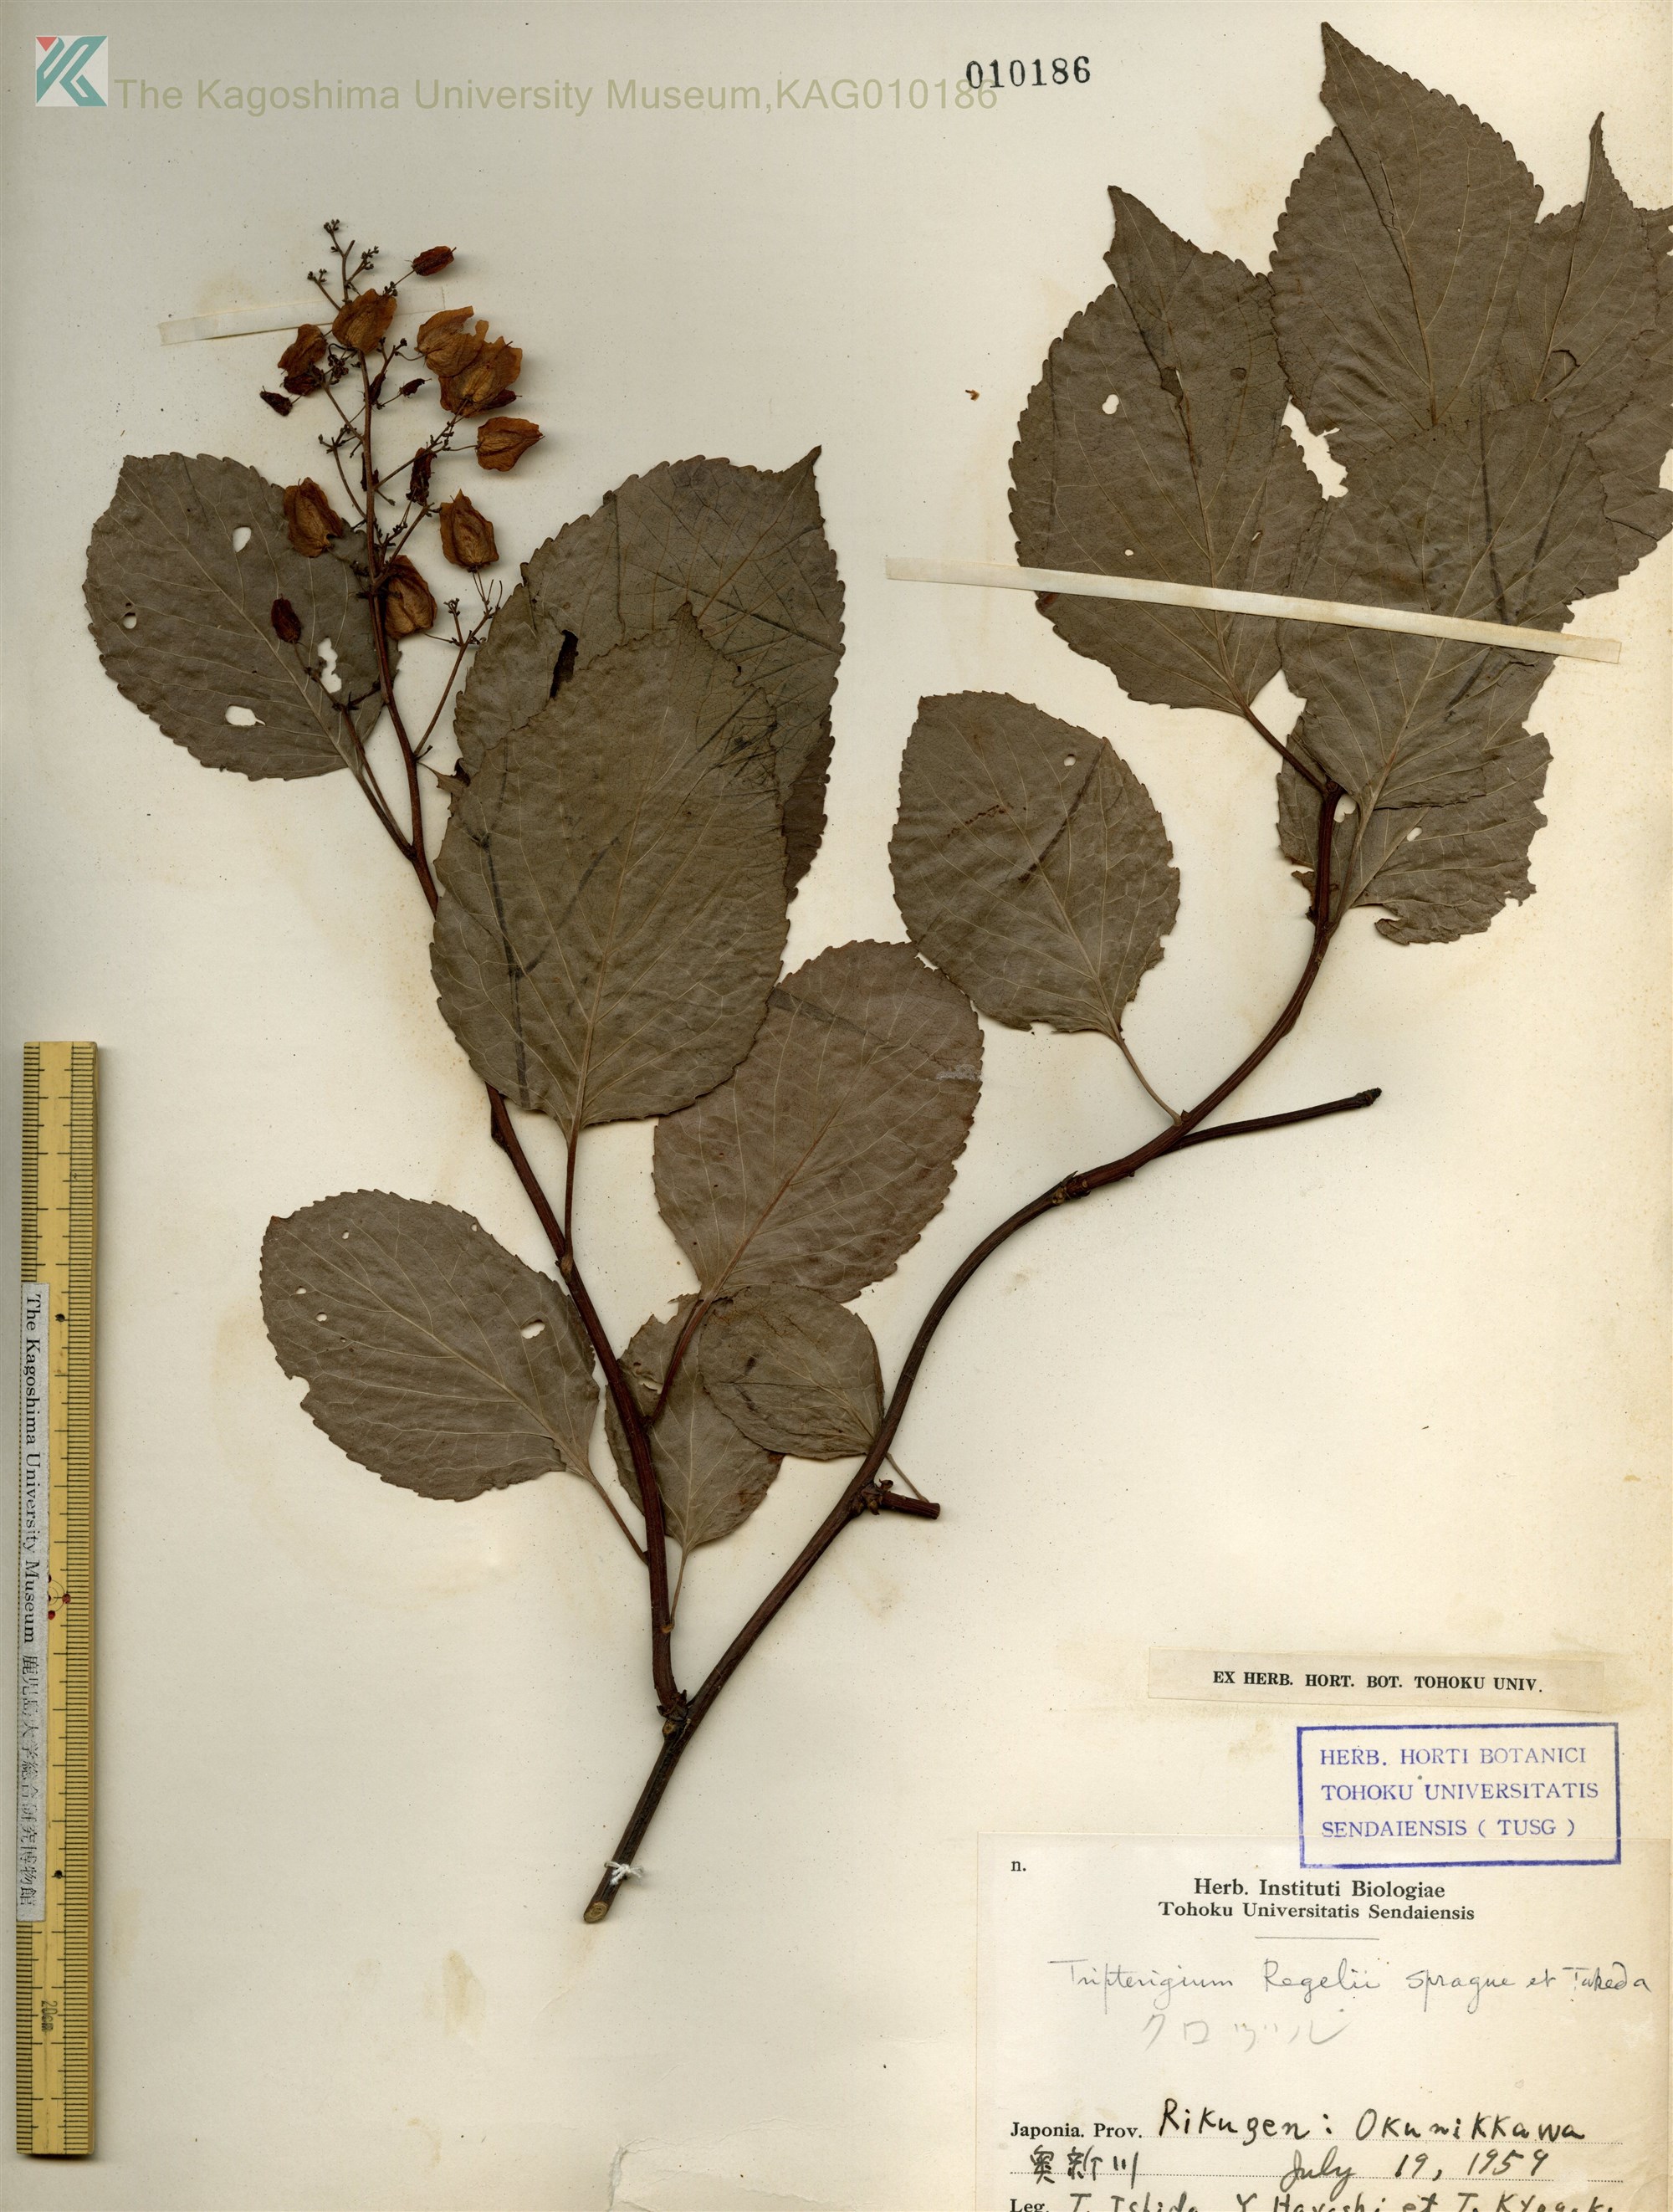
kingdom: Plantae
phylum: Tracheophyta
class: Magnoliopsida
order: Celastrales
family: Celastraceae
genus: Tripterygium
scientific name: Tripterygium wilfordii
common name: クロヅル
